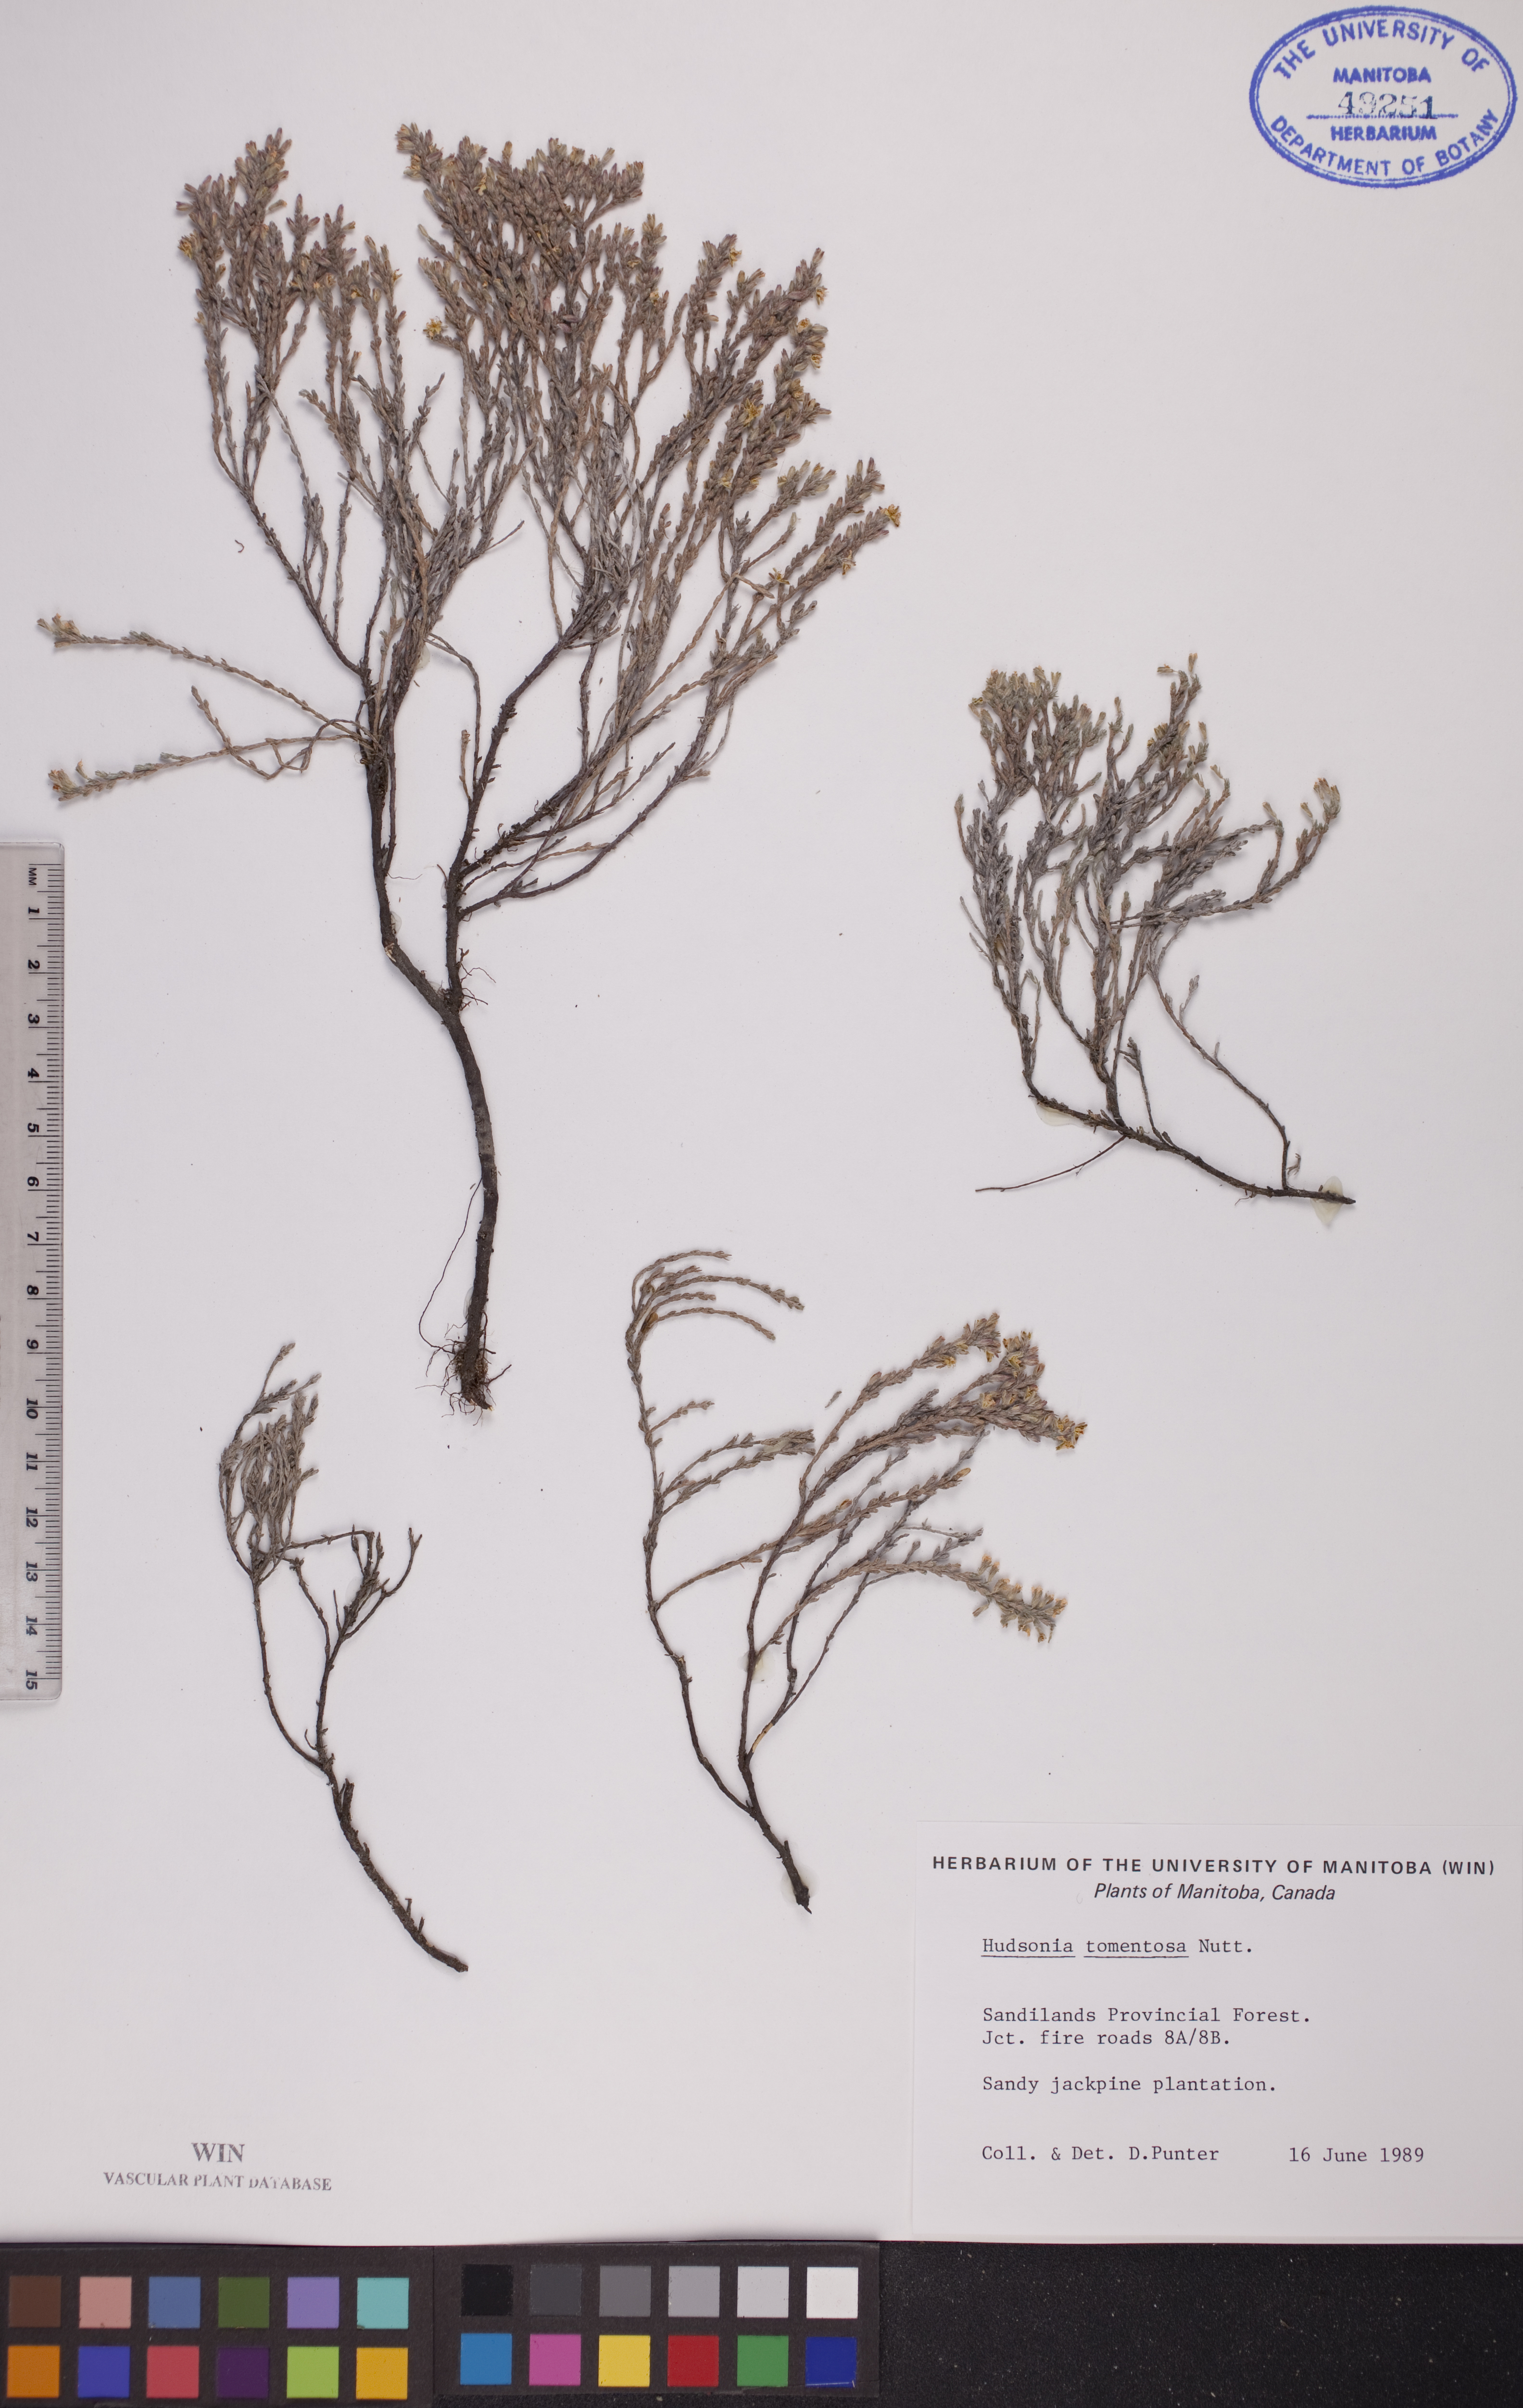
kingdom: Plantae
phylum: Tracheophyta
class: Magnoliopsida
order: Malvales
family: Cistaceae
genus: Hudsonia
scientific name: Hudsonia tomentosa
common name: Beach-heath
